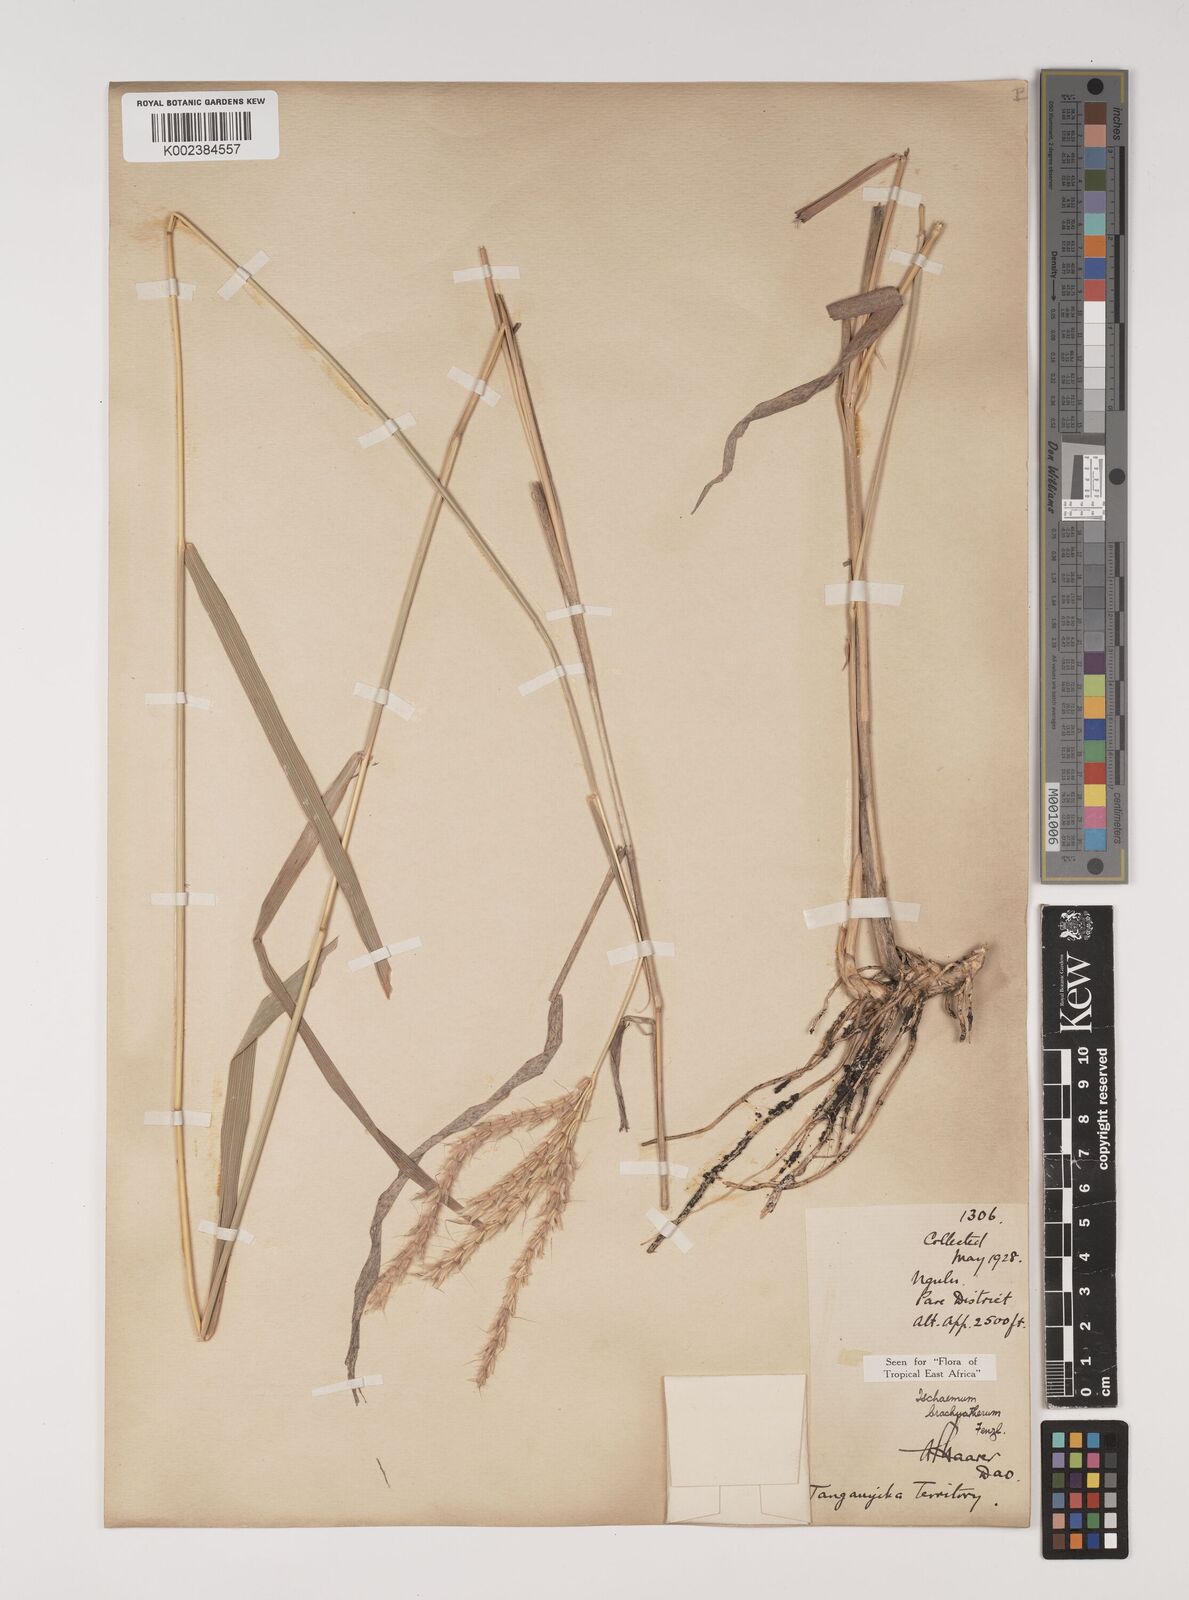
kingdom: Plantae
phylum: Tracheophyta
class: Liliopsida
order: Poales
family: Poaceae
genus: Ischaemum
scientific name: Ischaemum afrum
